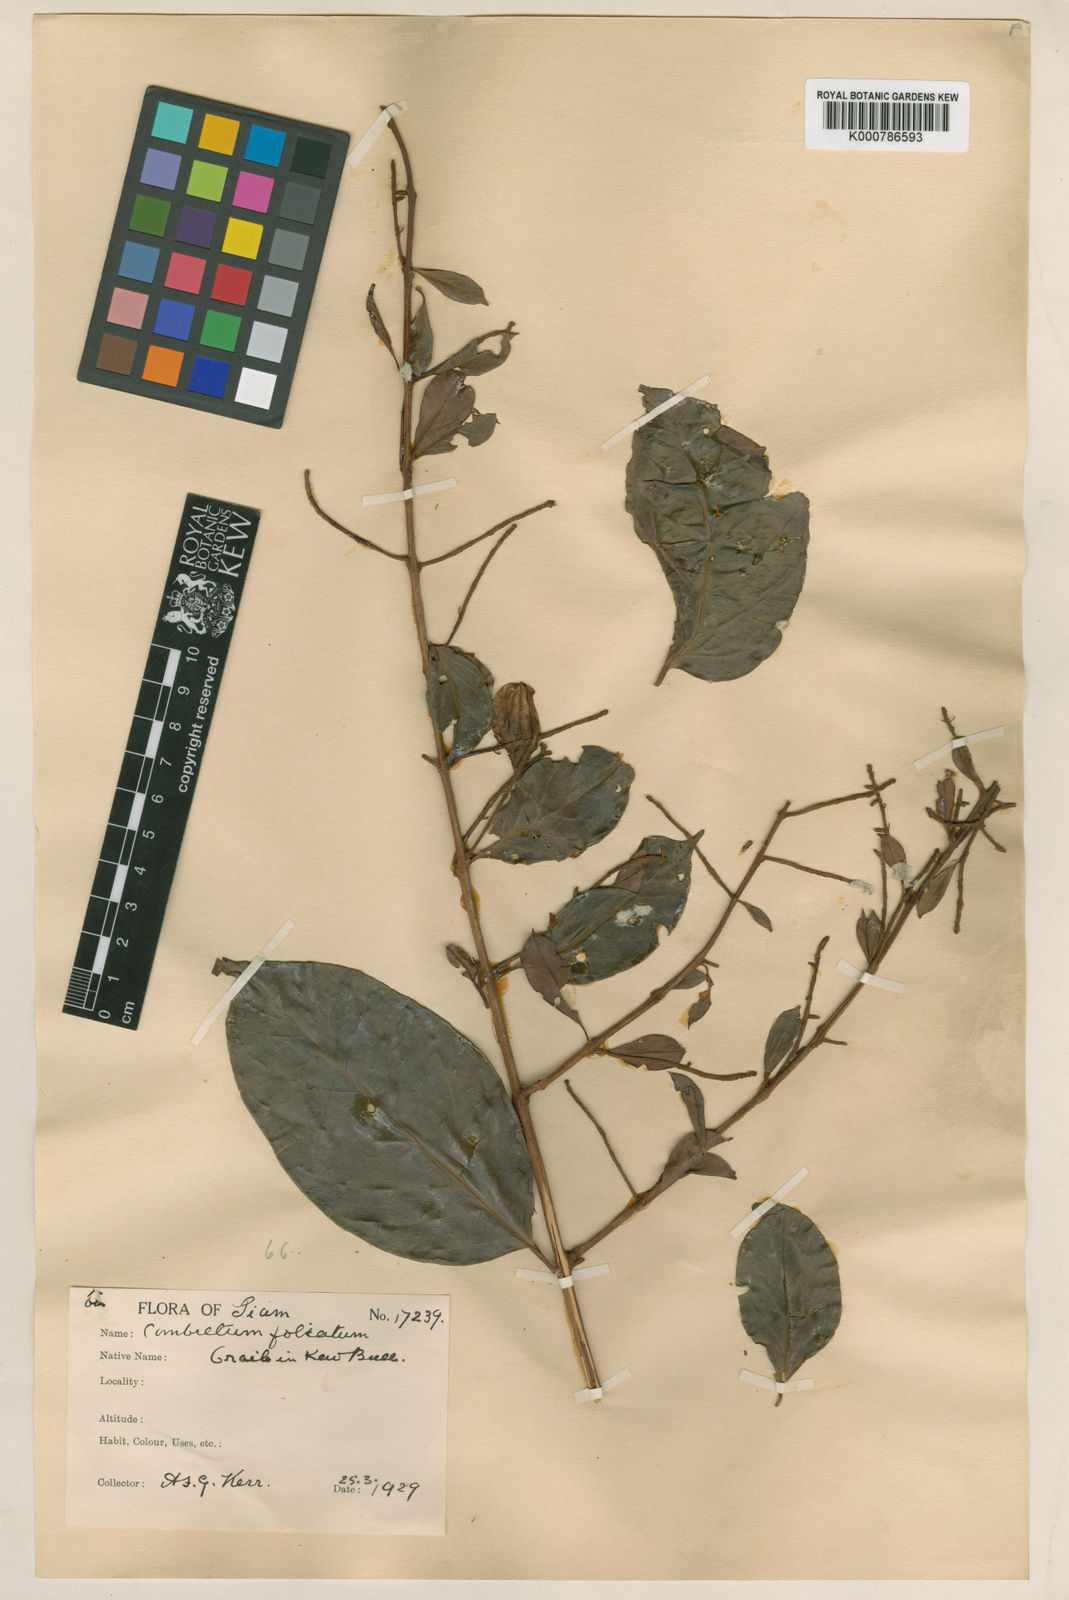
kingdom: Plantae
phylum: Tracheophyta
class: Magnoliopsida
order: Myrtales
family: Combretaceae
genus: Combretum
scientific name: Combretum punctatum
